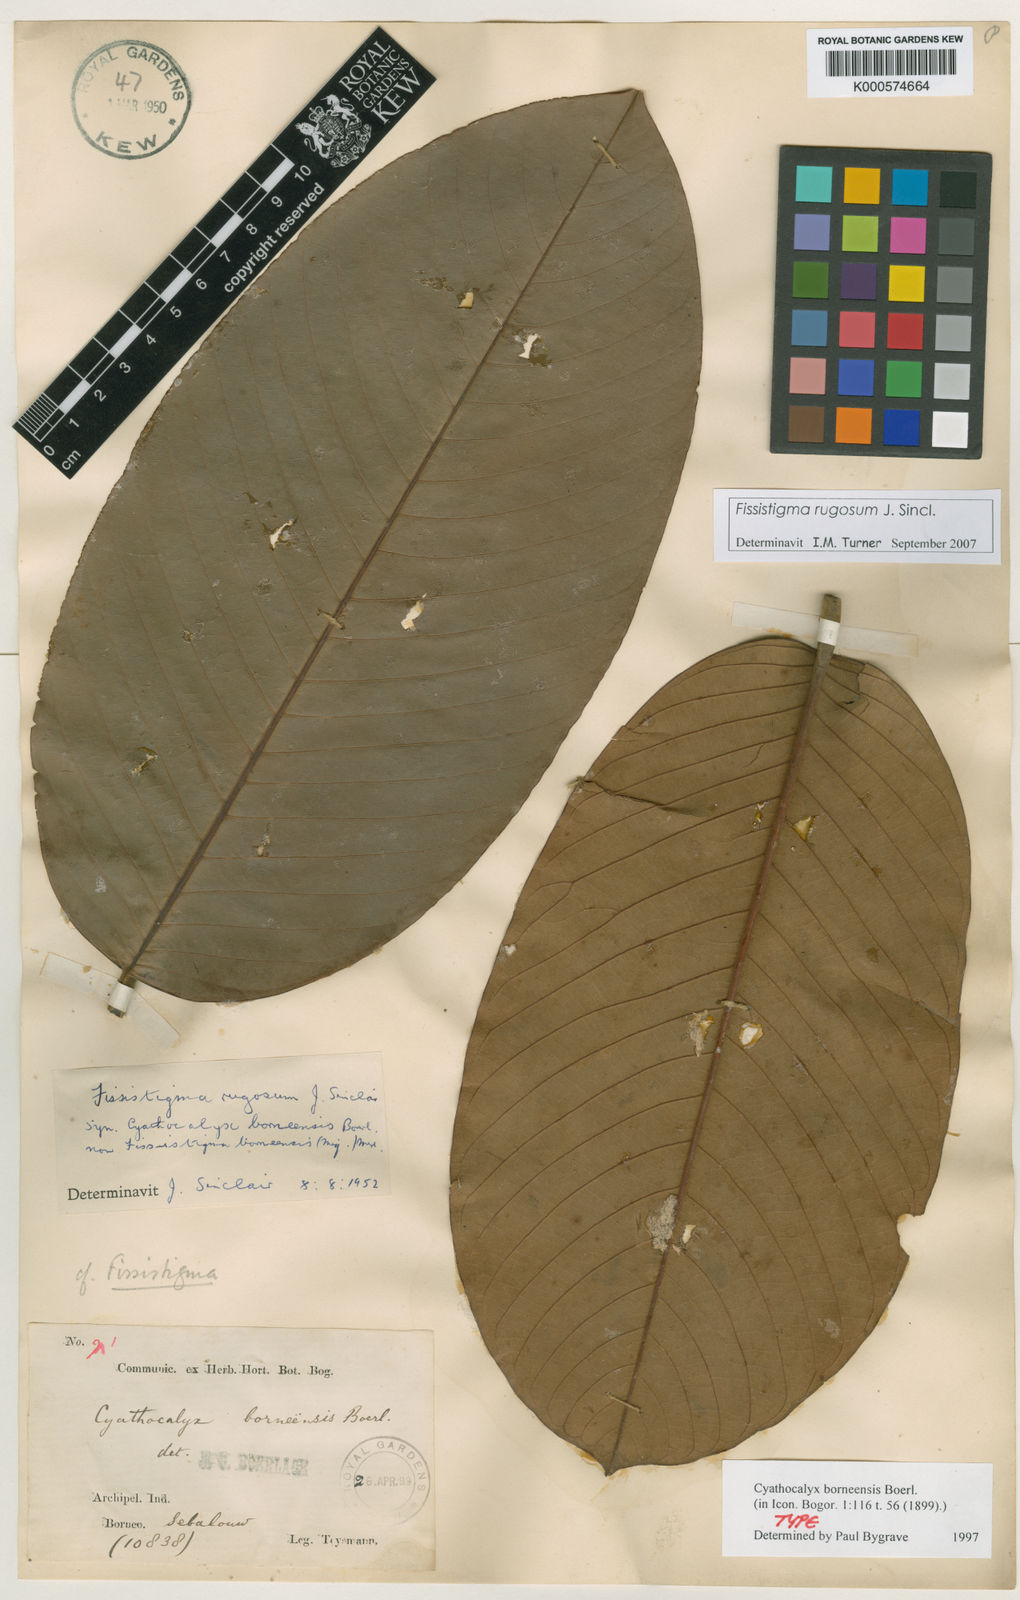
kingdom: Plantae
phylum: Tracheophyta
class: Magnoliopsida
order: Magnoliales
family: Annonaceae
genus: Fissistigma
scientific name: Fissistigma rugosum
